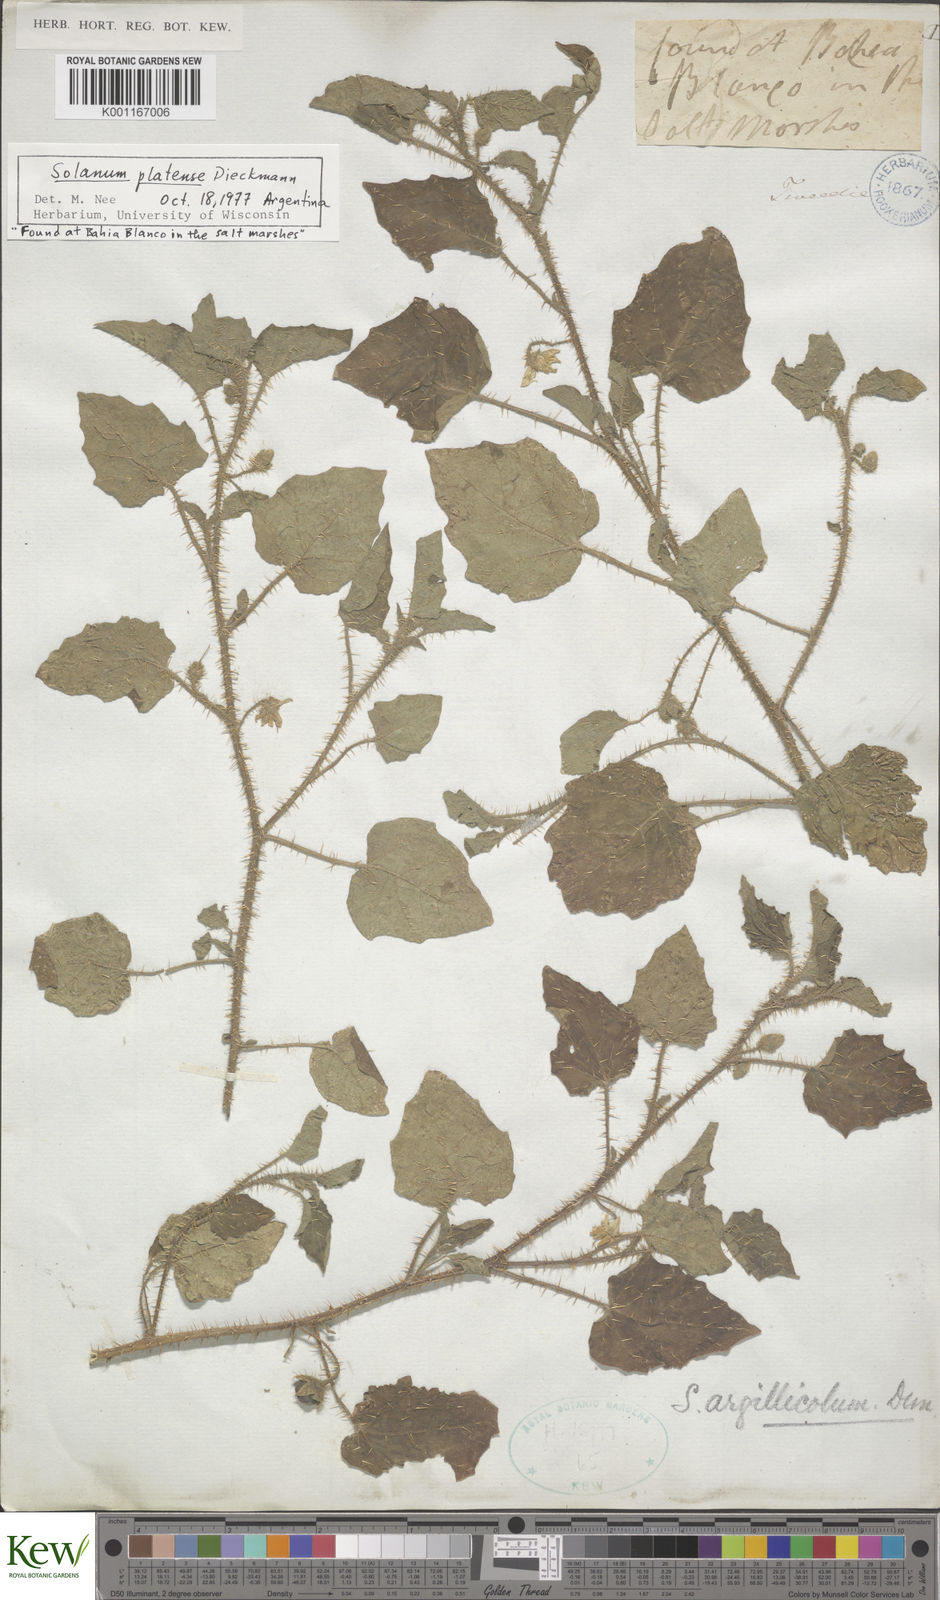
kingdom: Plantae
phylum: Tracheophyta
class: Magnoliopsida
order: Solanales
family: Solanaceae
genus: Solanum
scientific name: Solanum platense
